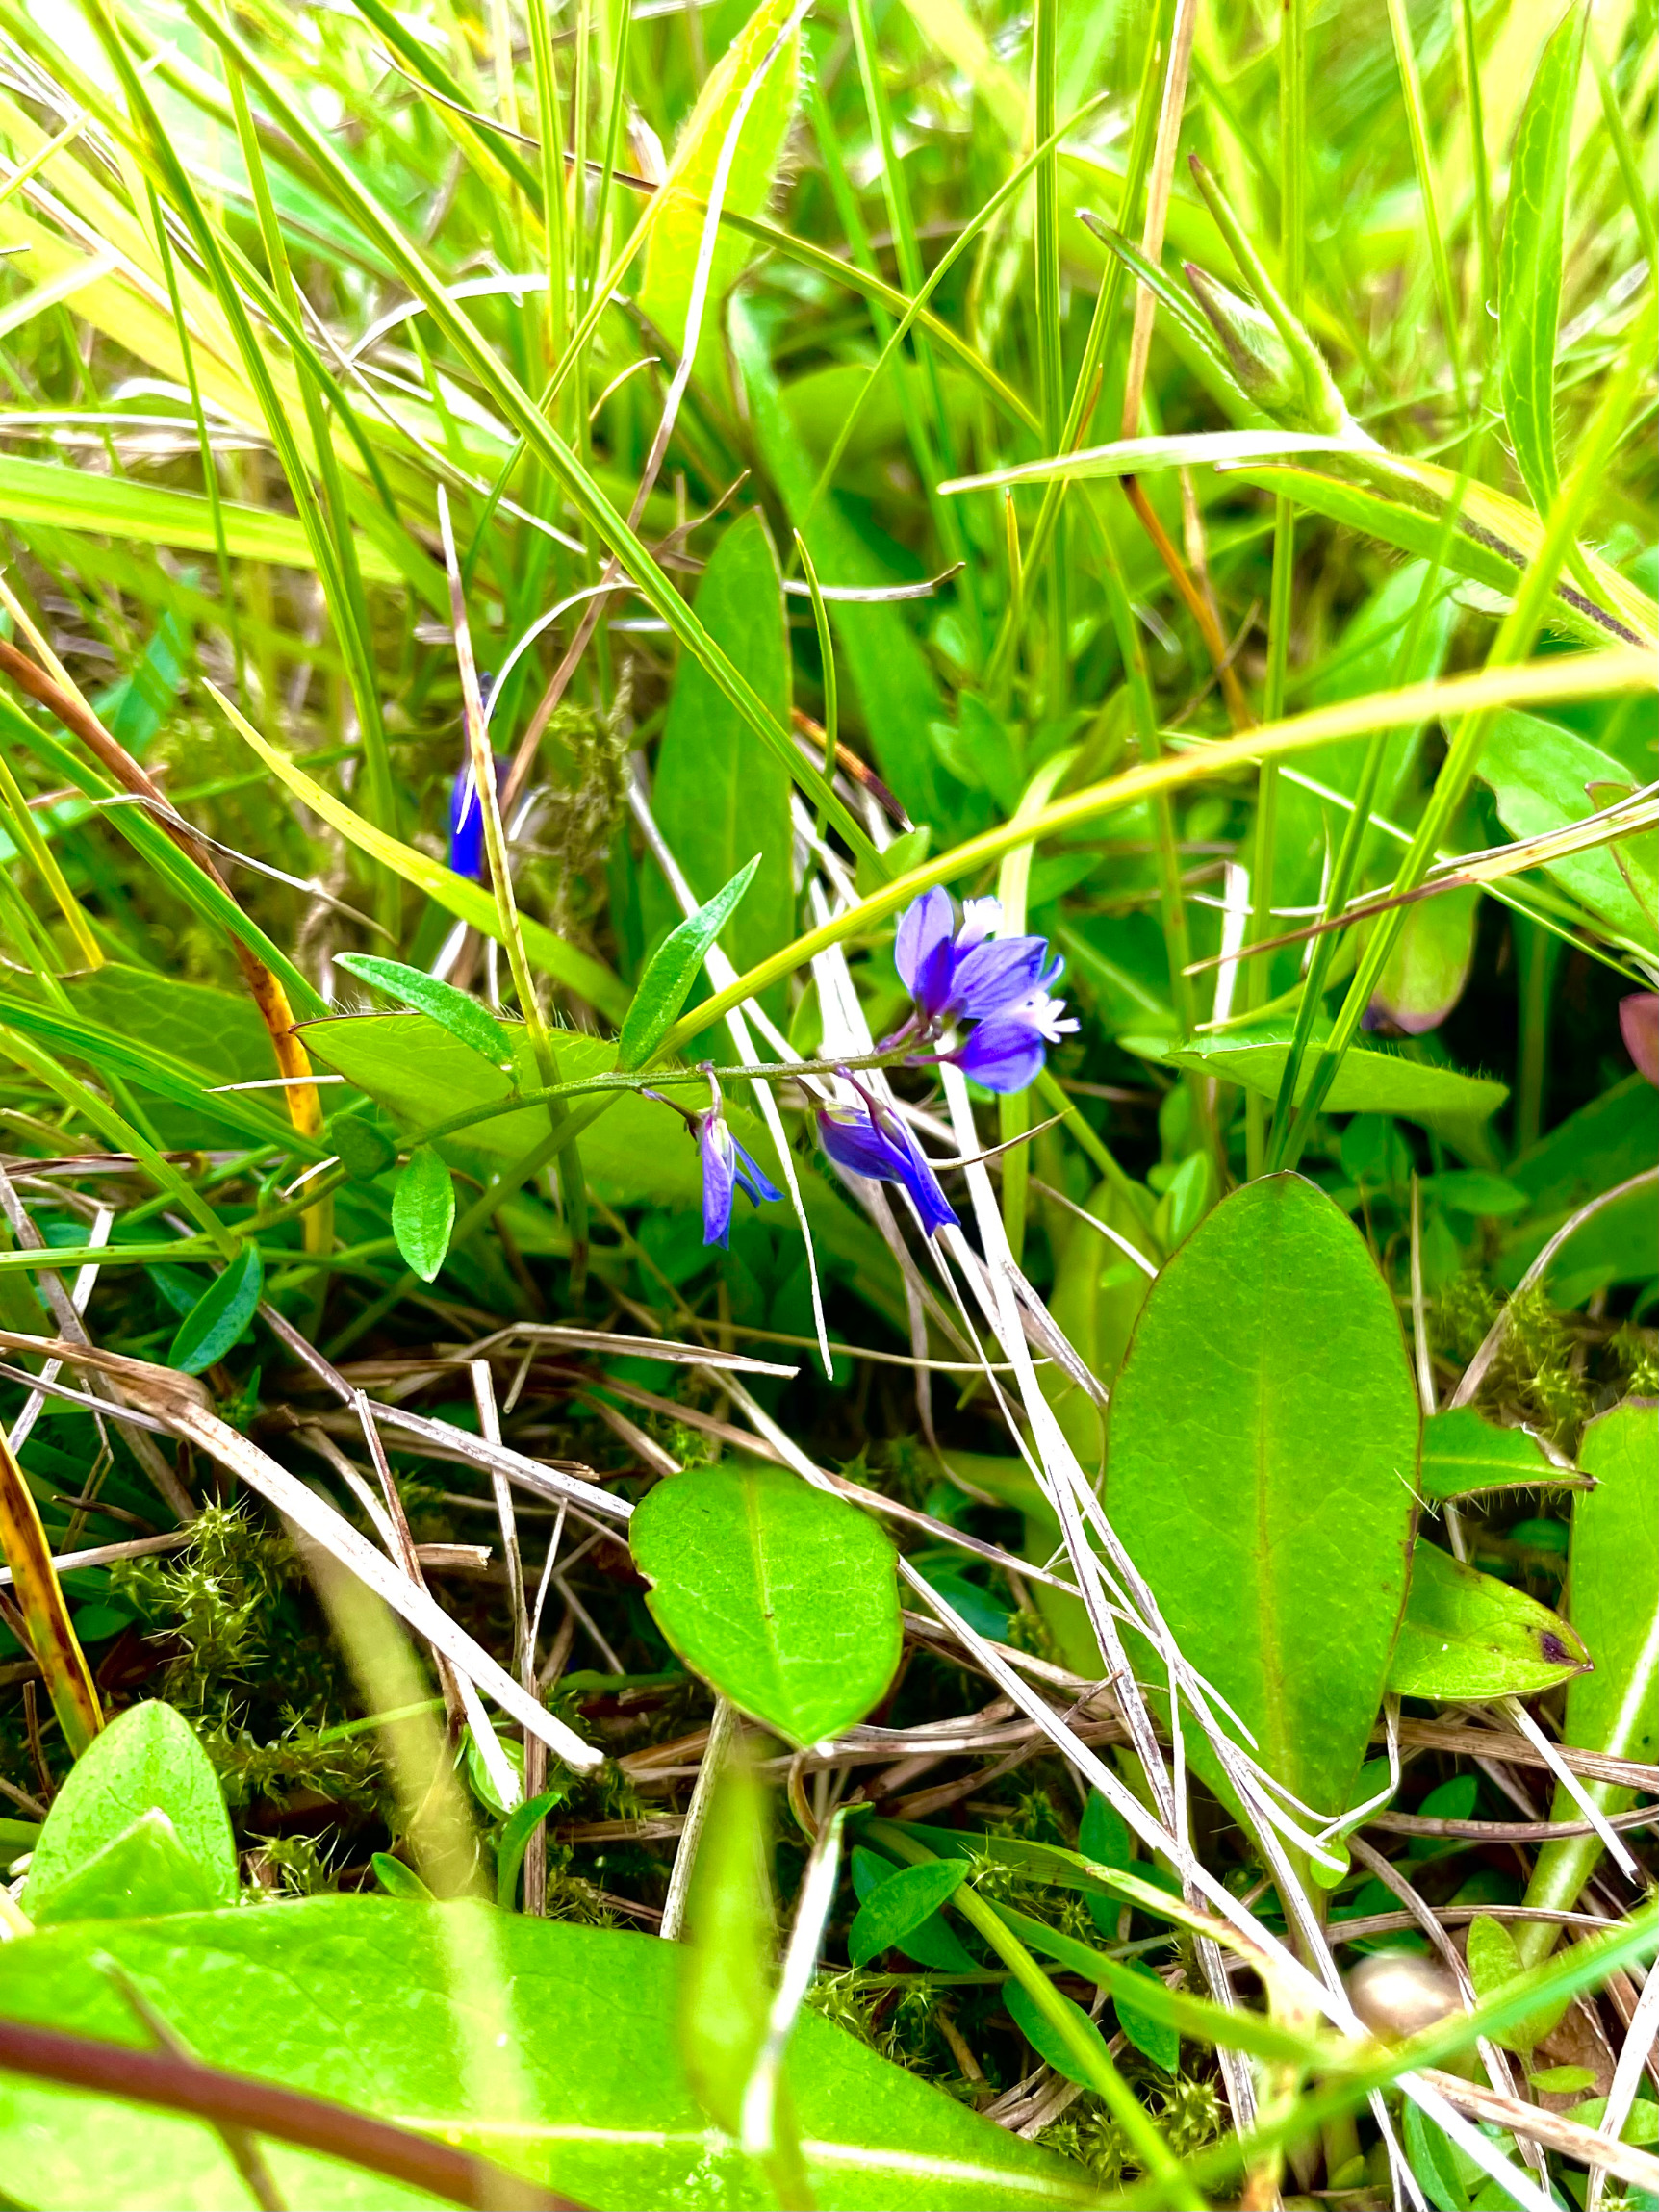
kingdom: Plantae
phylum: Tracheophyta
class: Magnoliopsida
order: Fabales
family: Polygalaceae
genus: Polygala
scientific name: Polygala
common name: Mælkeurtslægten
